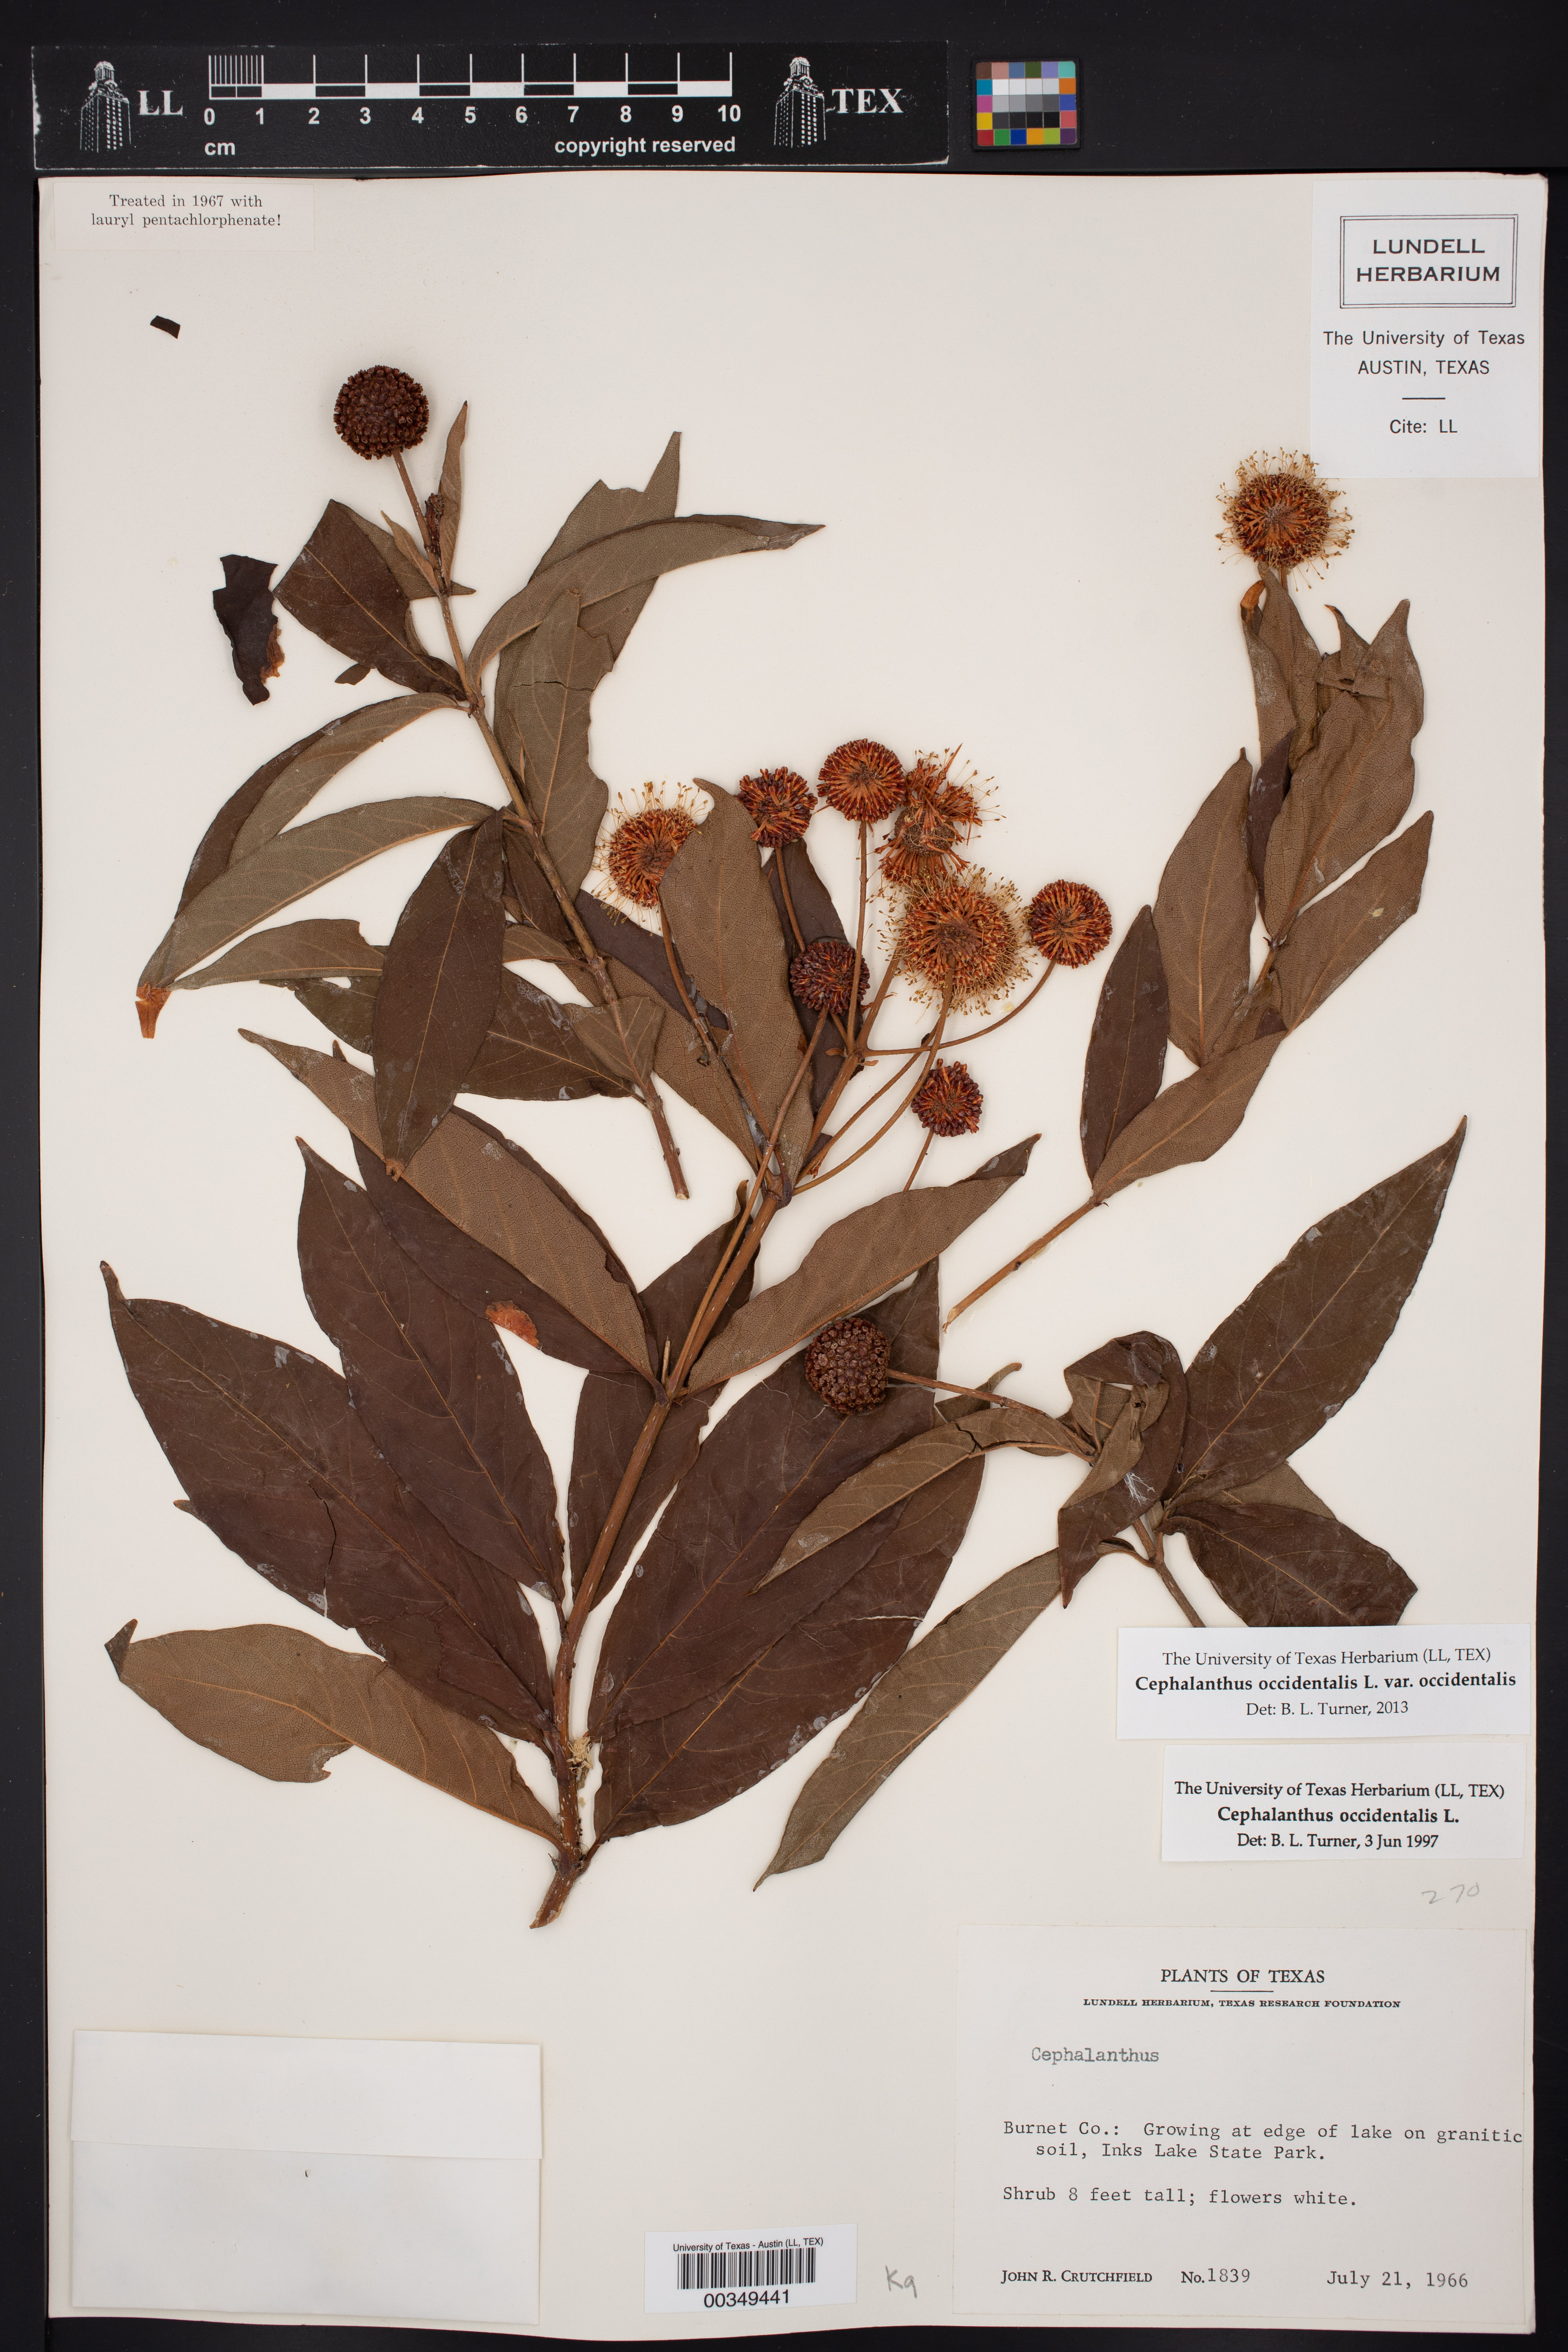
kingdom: Plantae
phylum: Tracheophyta
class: Magnoliopsida
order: Gentianales
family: Rubiaceae
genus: Cephalanthus
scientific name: Cephalanthus occidentalis
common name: Button-willow
